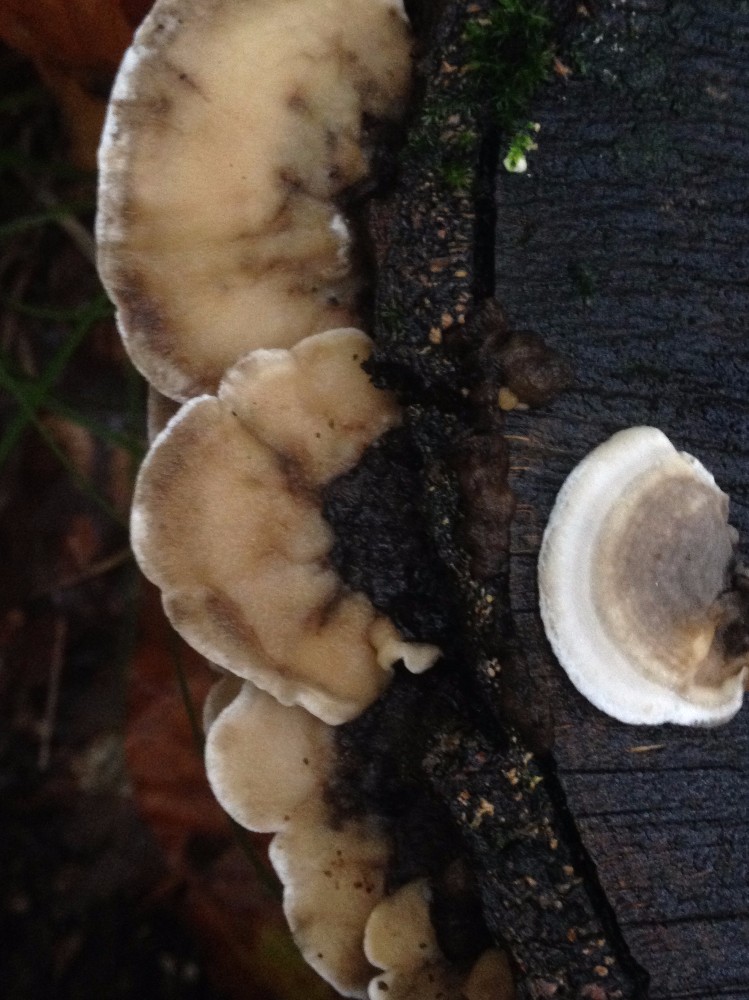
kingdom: Fungi
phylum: Basidiomycota
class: Agaricomycetes
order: Polyporales
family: Phanerochaetaceae
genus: Bjerkandera
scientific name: Bjerkandera adusta
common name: sveden sodporesvamp
